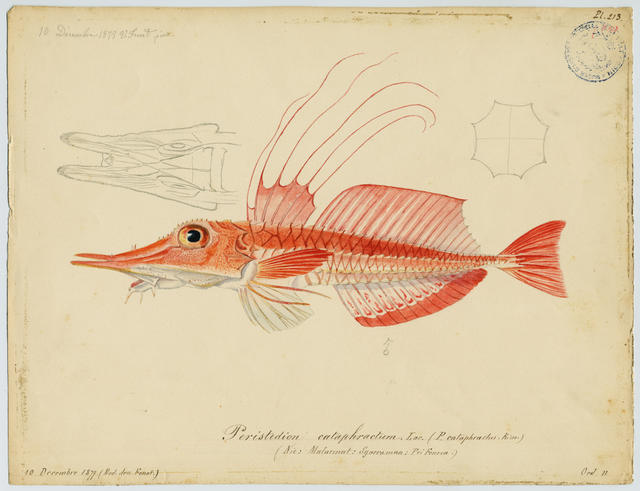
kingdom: Animalia
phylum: Chordata
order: Scorpaeniformes
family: Peristediidae
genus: Peristedion
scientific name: Peristedion cataphractum
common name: Armed gurnard
